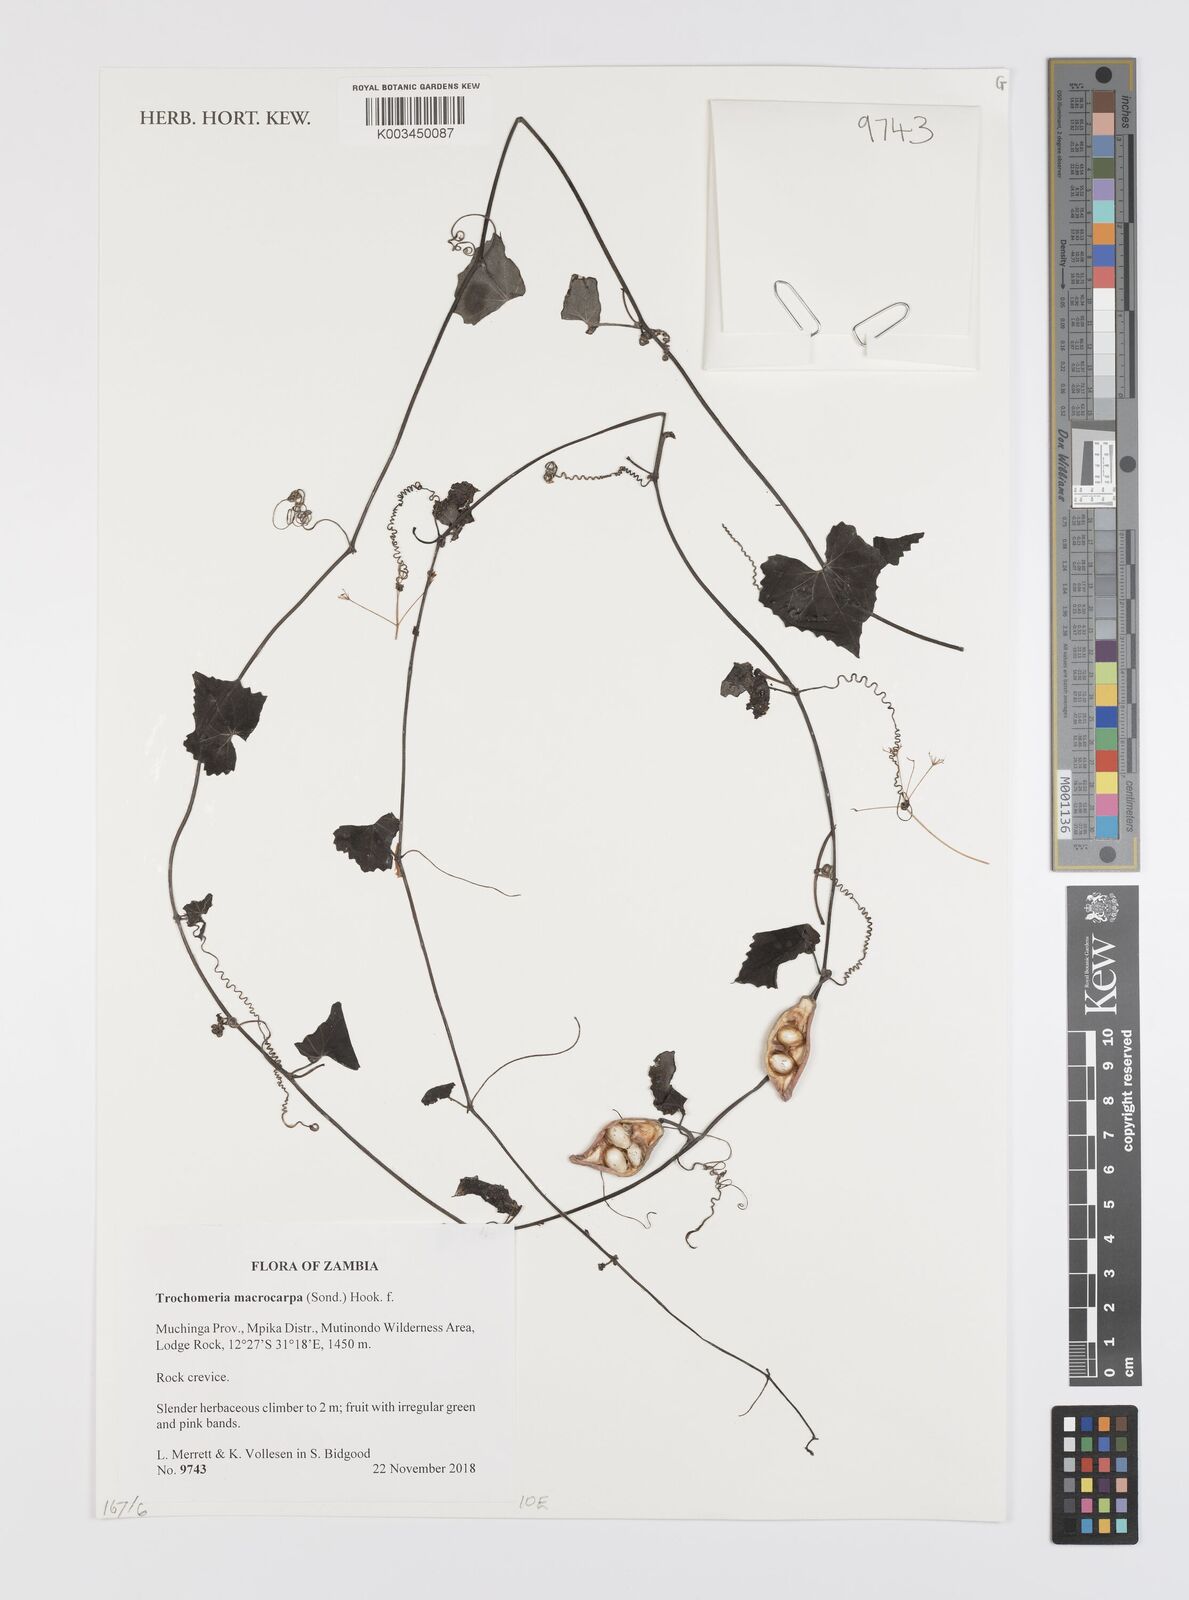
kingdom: Plantae
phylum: Tracheophyta
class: Magnoliopsida
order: Cucurbitales
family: Cucurbitaceae
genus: Trochomeria
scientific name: Trochomeria polymorpha
